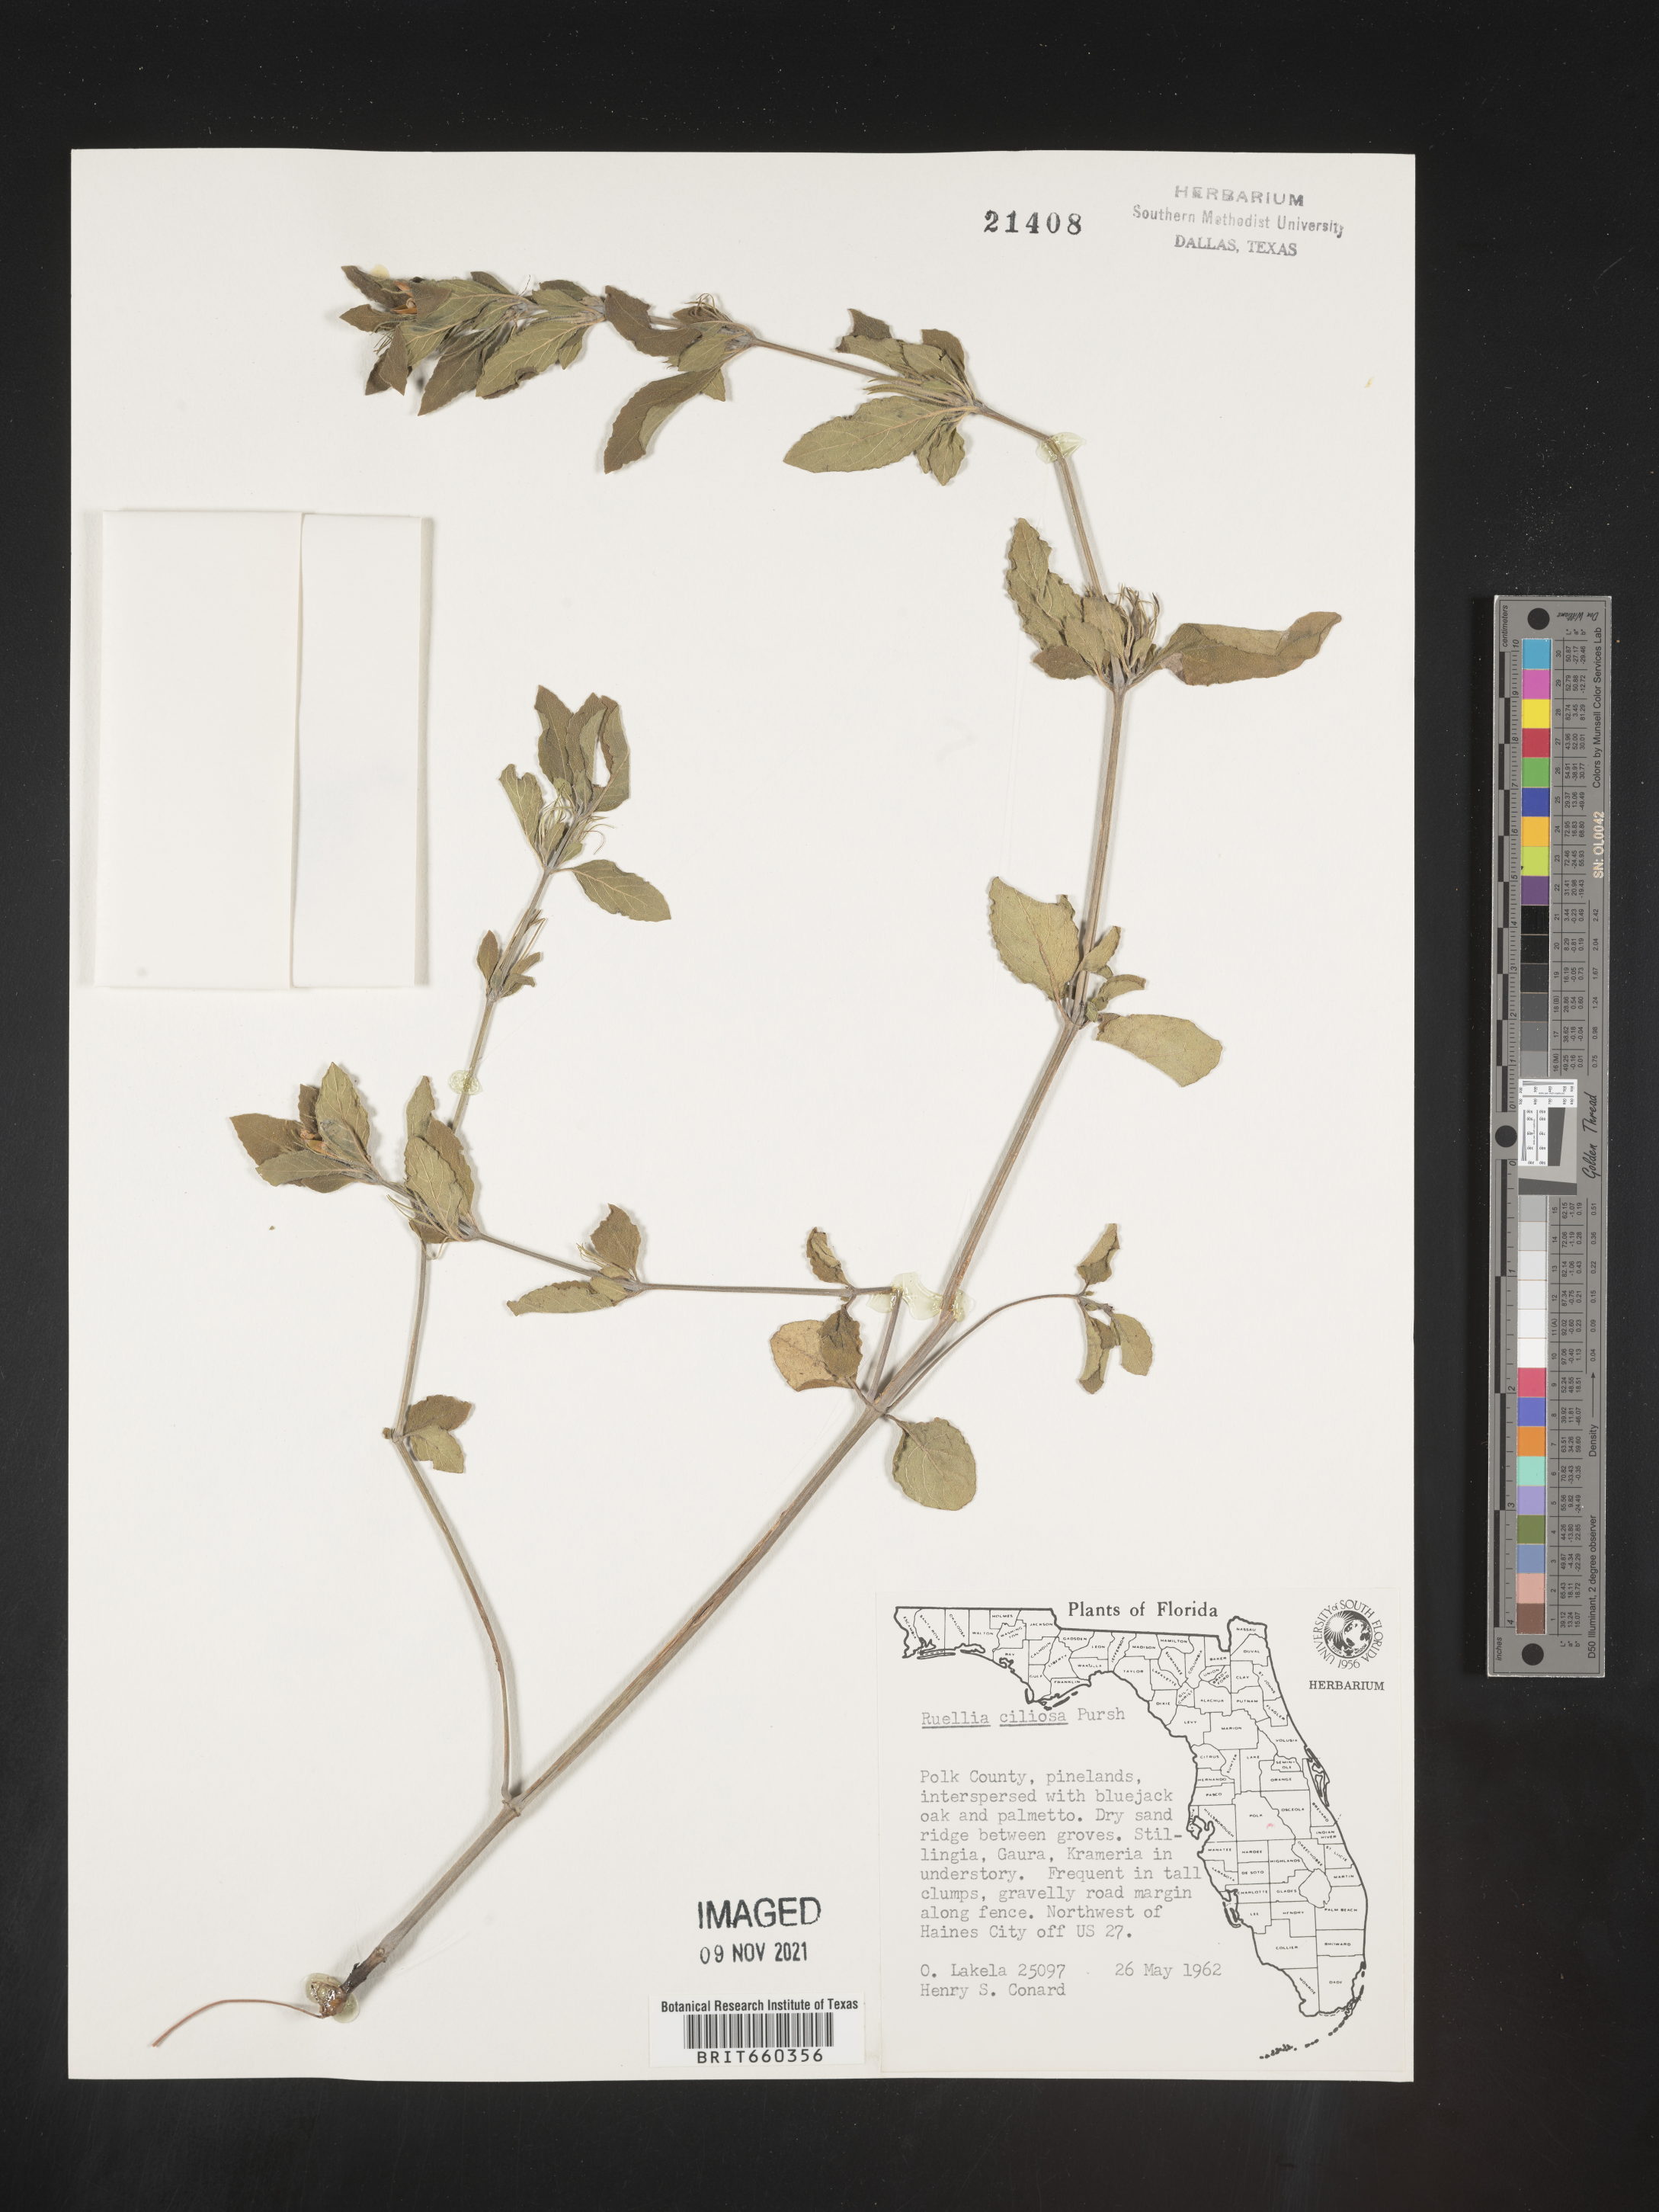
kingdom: Plantae
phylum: Tracheophyta
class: Magnoliopsida
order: Lamiales
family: Acanthaceae
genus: Ruellia
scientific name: Ruellia caroliniensis
